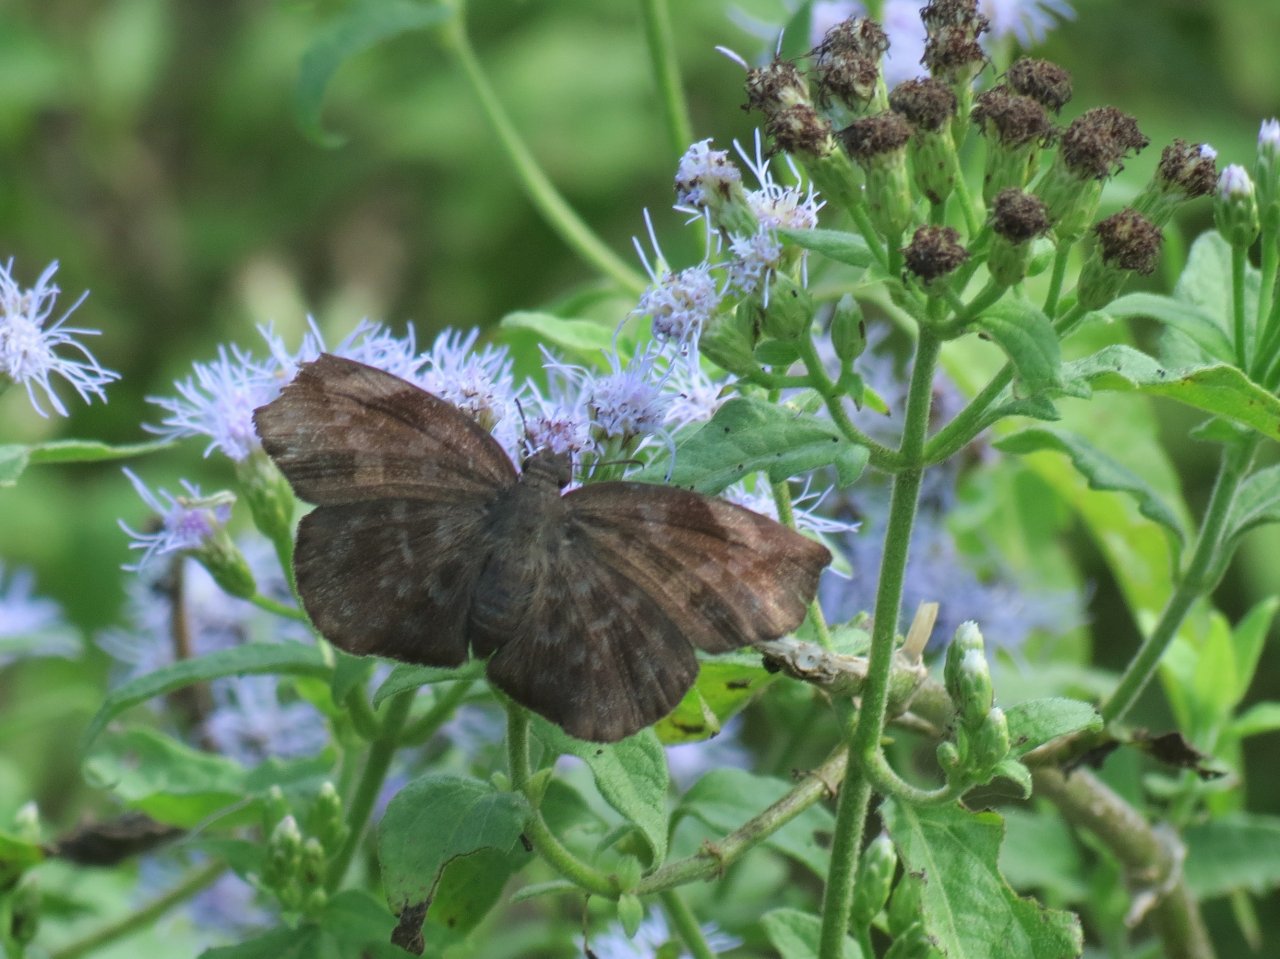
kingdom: Animalia
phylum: Arthropoda
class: Insecta
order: Lepidoptera
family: Hesperiidae
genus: Achlyodes
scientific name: Achlyodes thraso
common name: Sickle-winged Skipper
